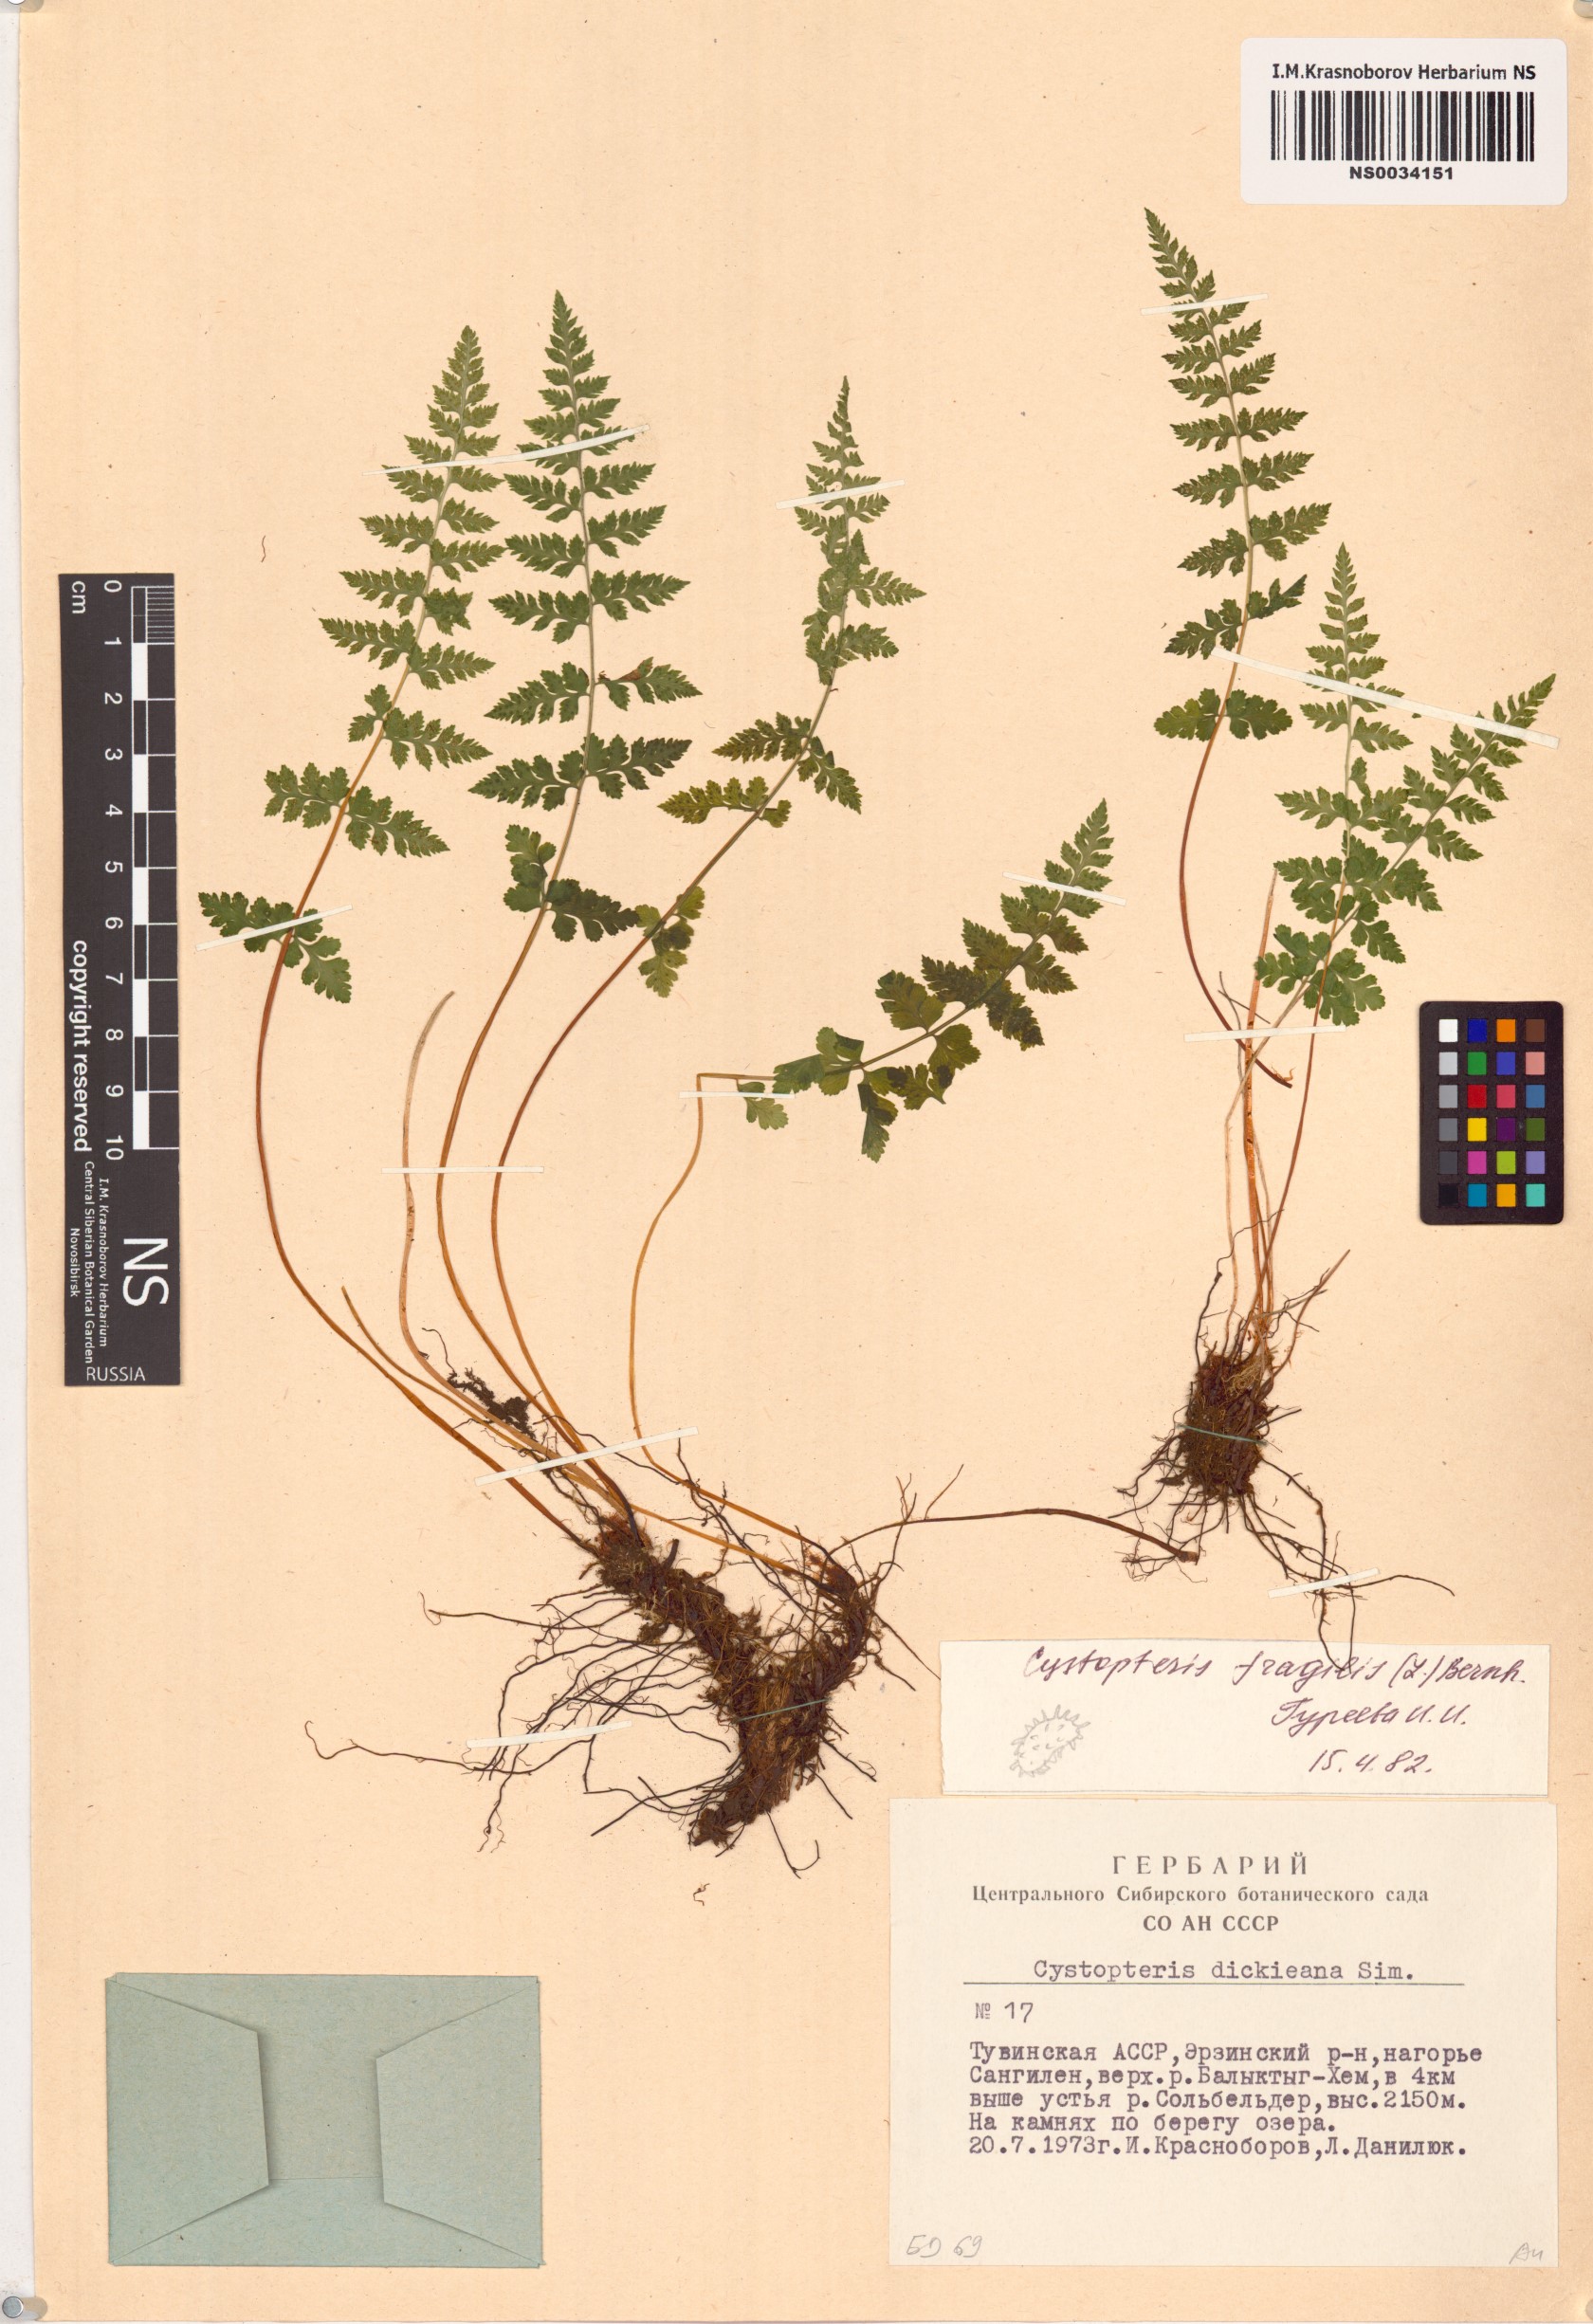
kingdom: Plantae
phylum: Tracheophyta
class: Polypodiopsida
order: Polypodiales
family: Cystopteridaceae
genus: Cystopteris
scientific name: Cystopteris fragilis
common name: Brittle bladder fern
